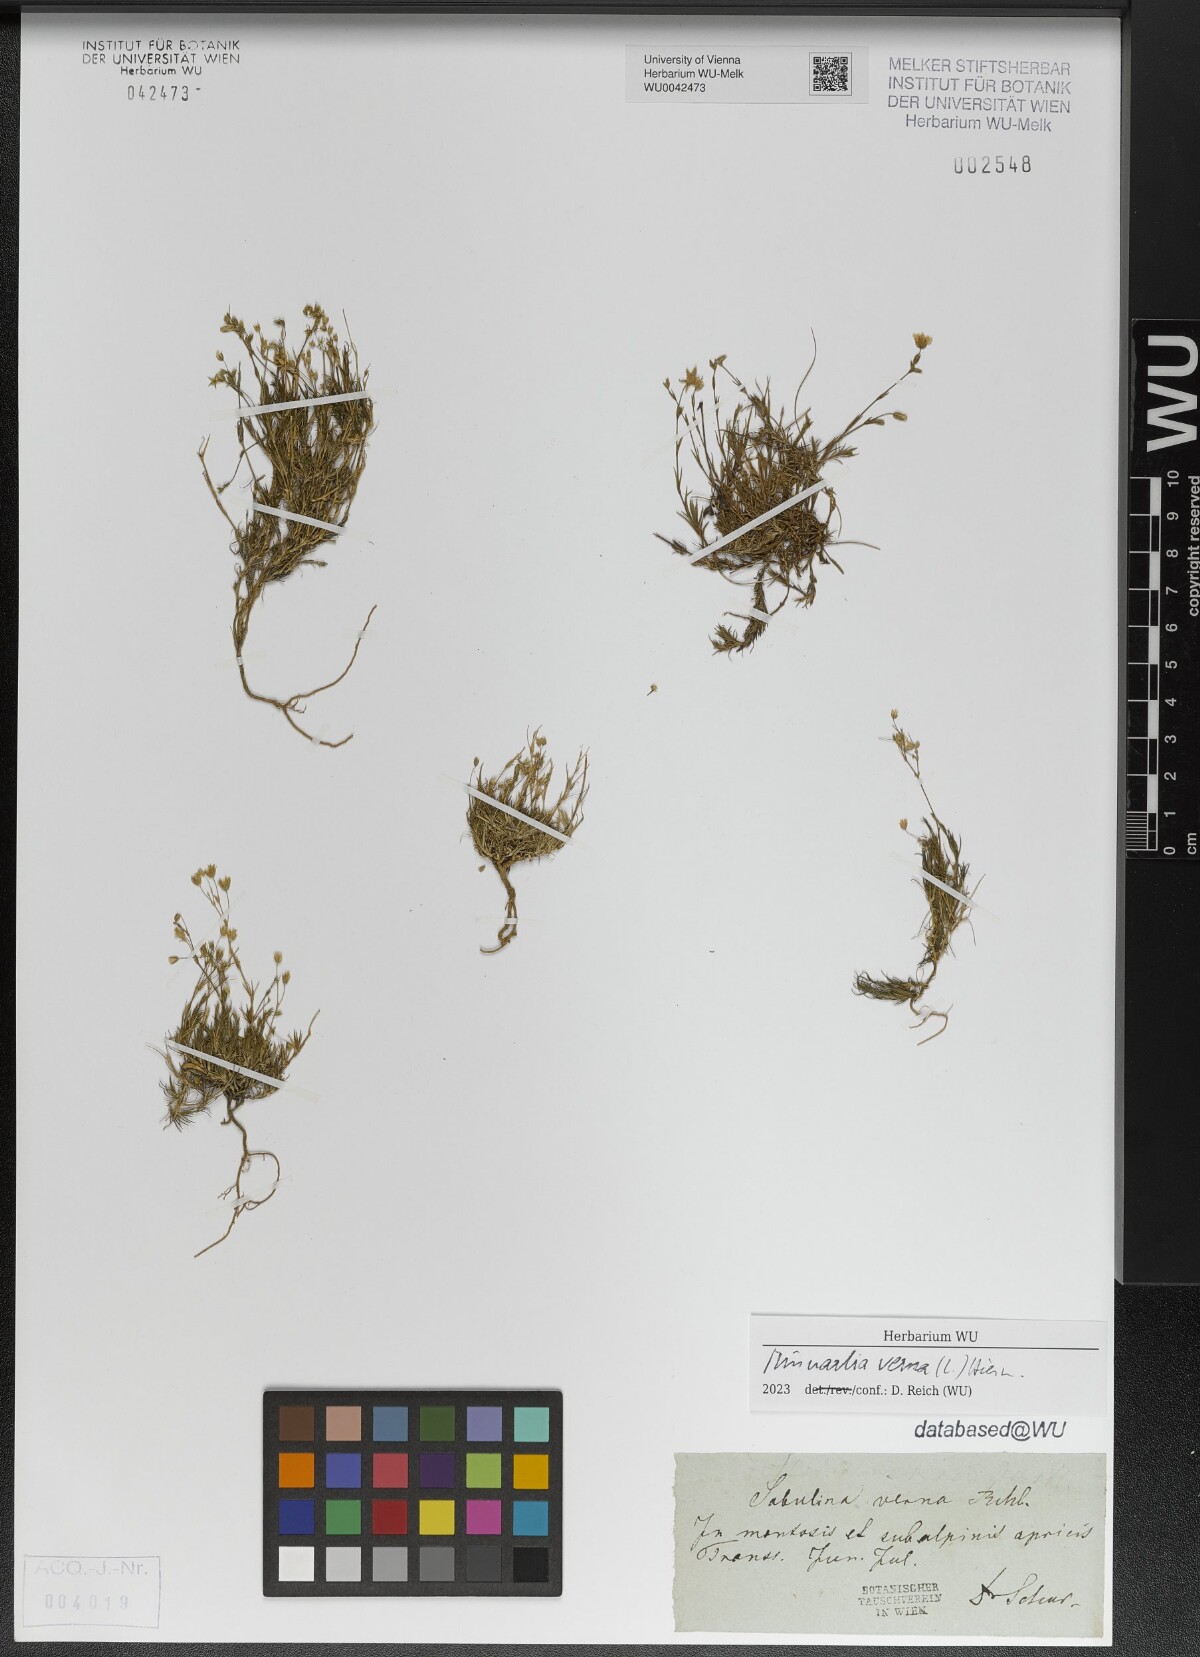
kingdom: Plantae
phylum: Tracheophyta
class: Magnoliopsida
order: Caryophyllales
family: Caryophyllaceae
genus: Sabulina
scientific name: Sabulina verna
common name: Spring sandwort
